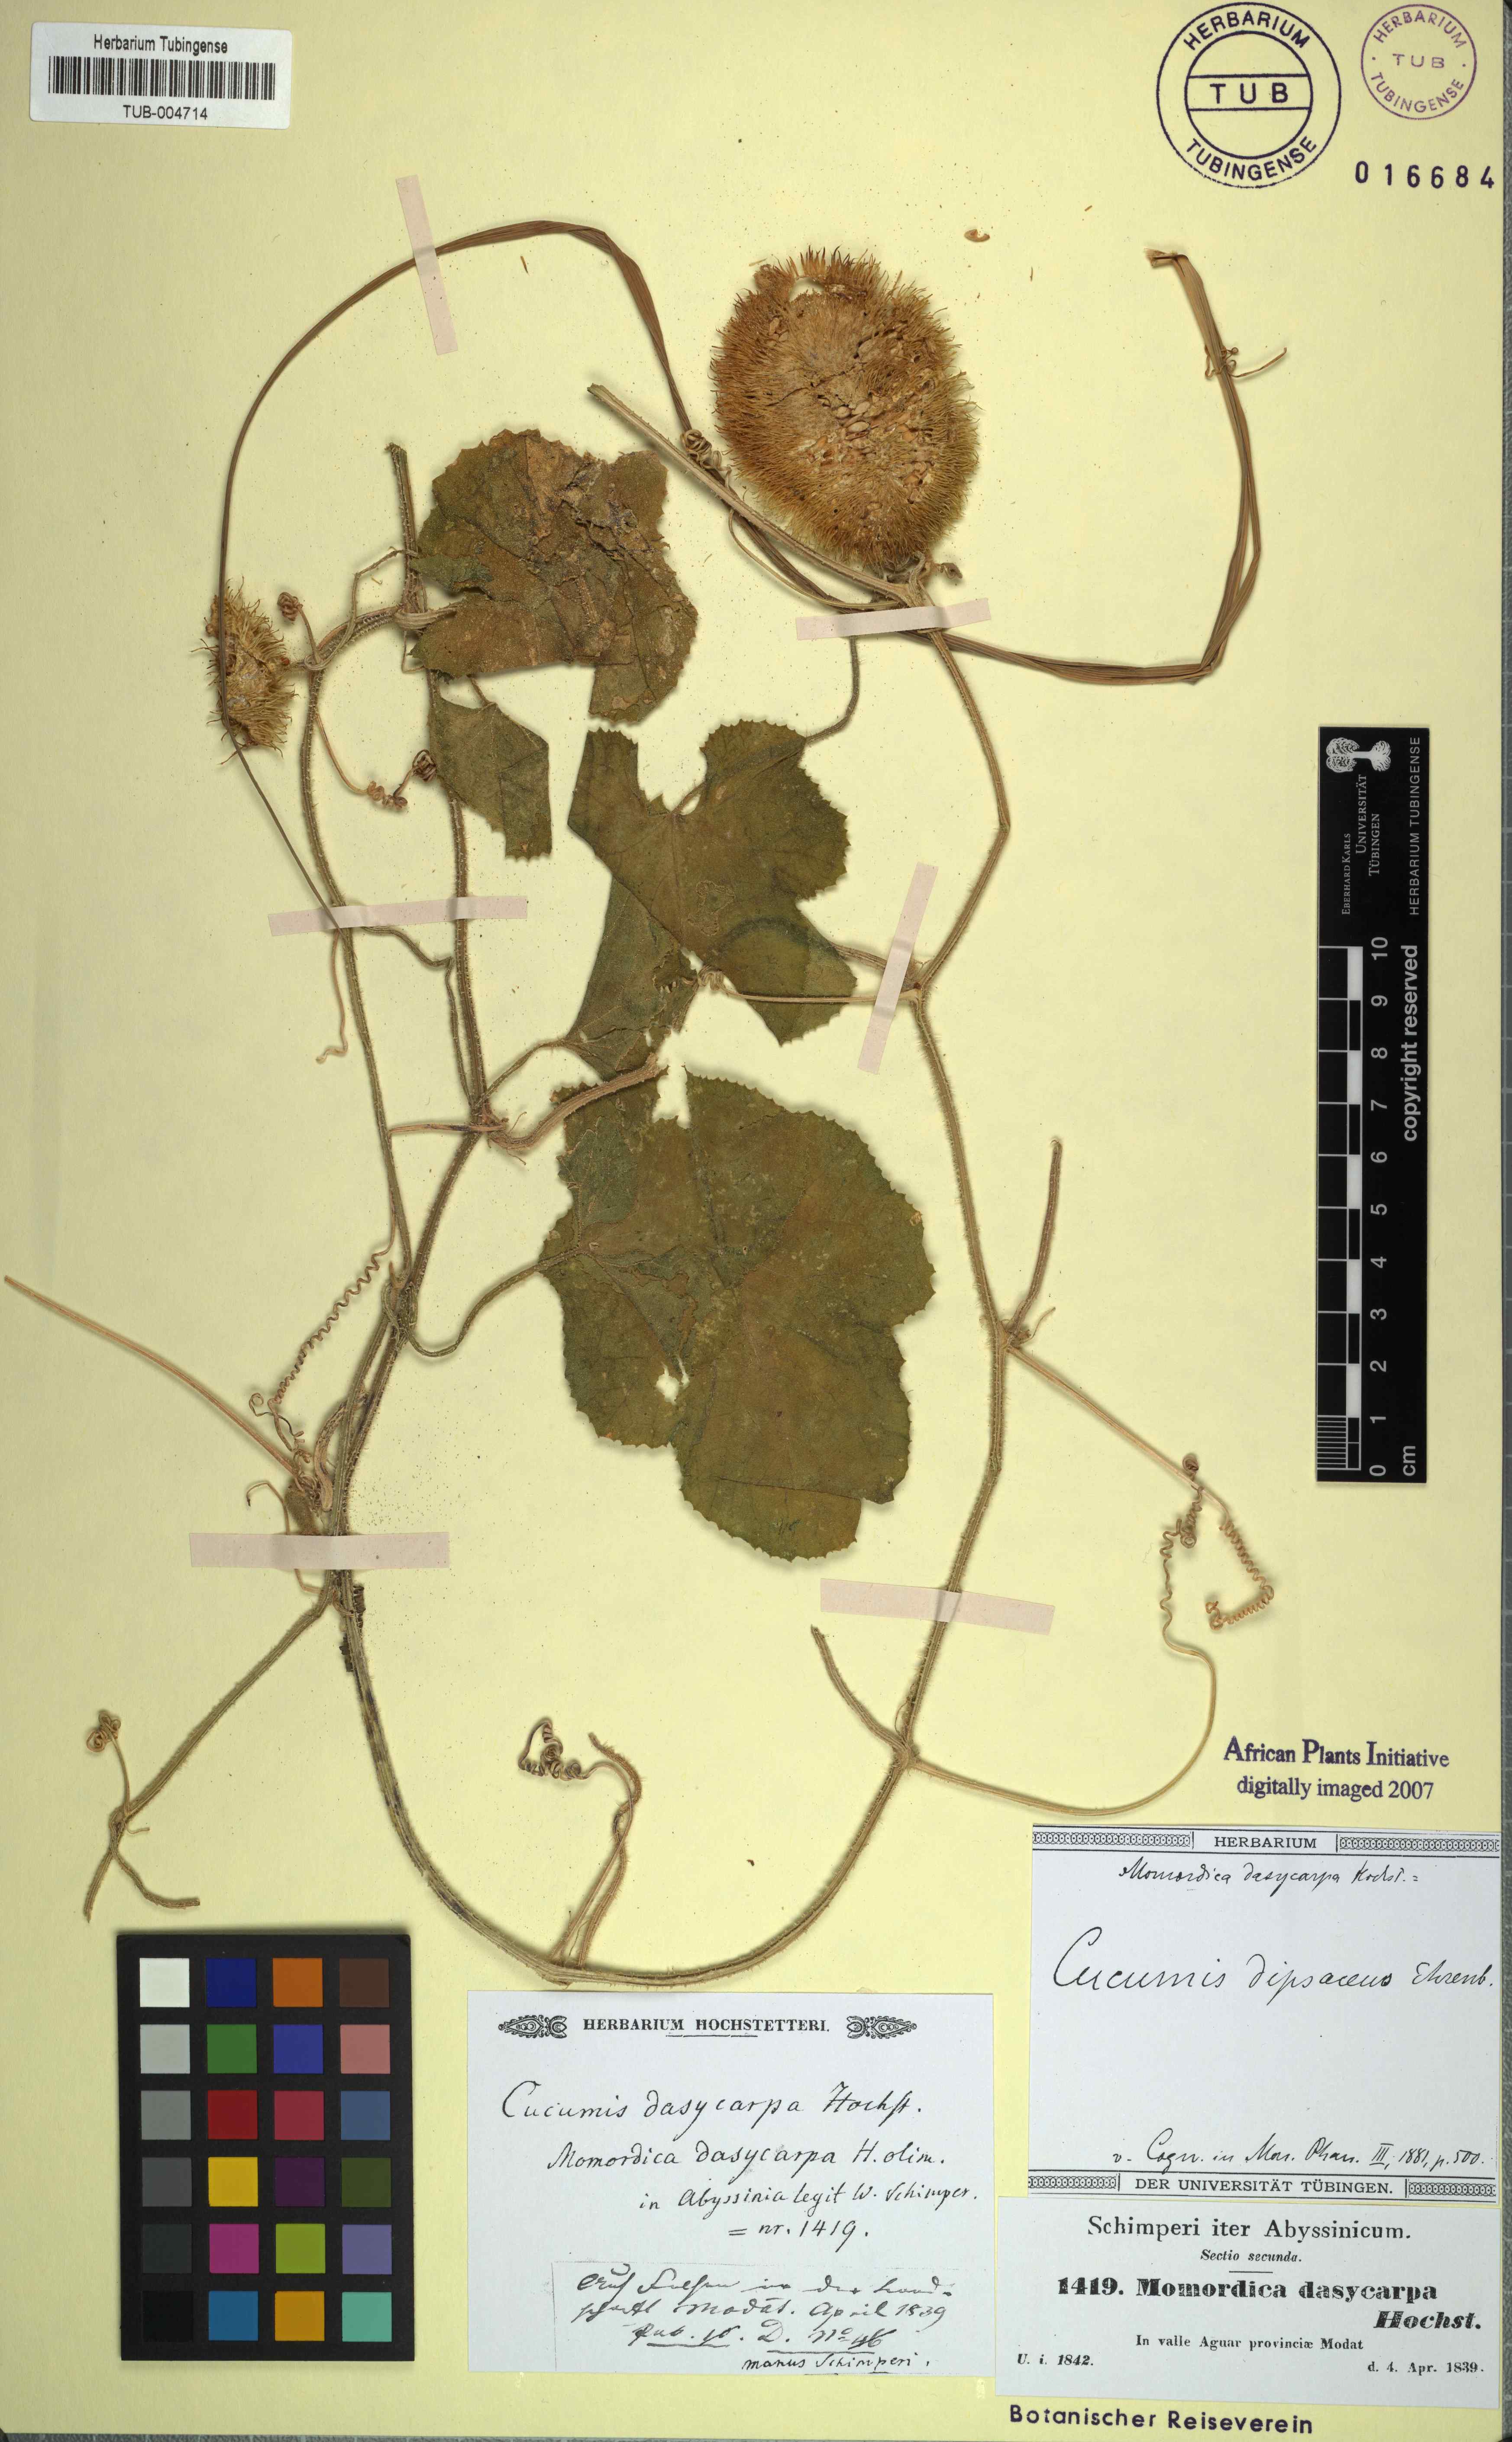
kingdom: Plantae
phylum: Tracheophyta
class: Magnoliopsida
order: Cucurbitales
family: Cucurbitaceae
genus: Cucumis
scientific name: Cucumis dipsaceus
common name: Hedgehog gourd
